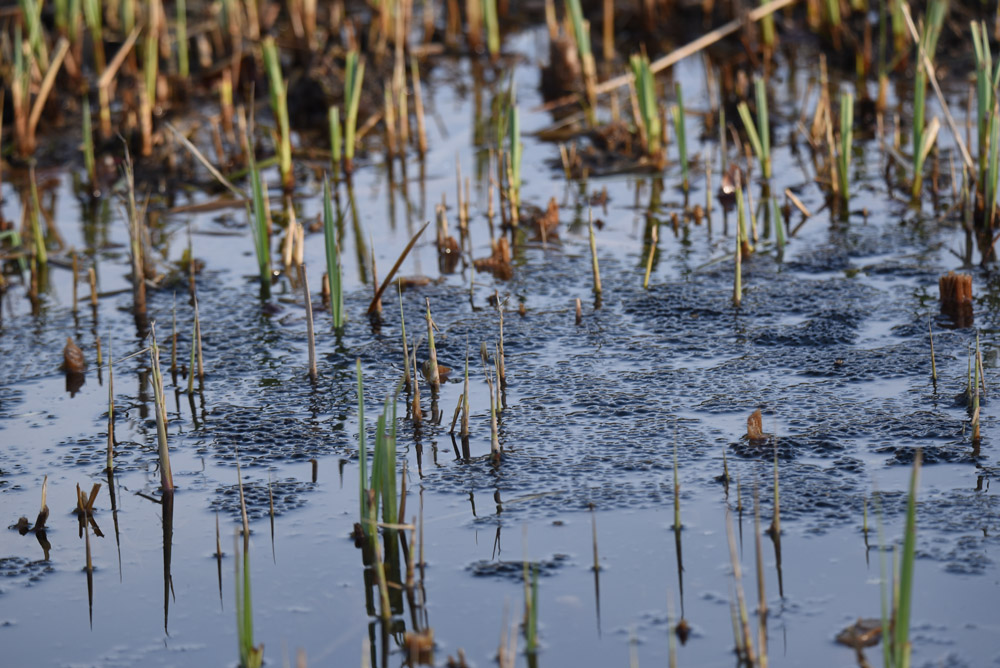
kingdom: Animalia
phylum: Chordata
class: Amphibia
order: Anura
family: Ranidae
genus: Pelophylax
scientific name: Pelophylax lessonae
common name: Pool frog
